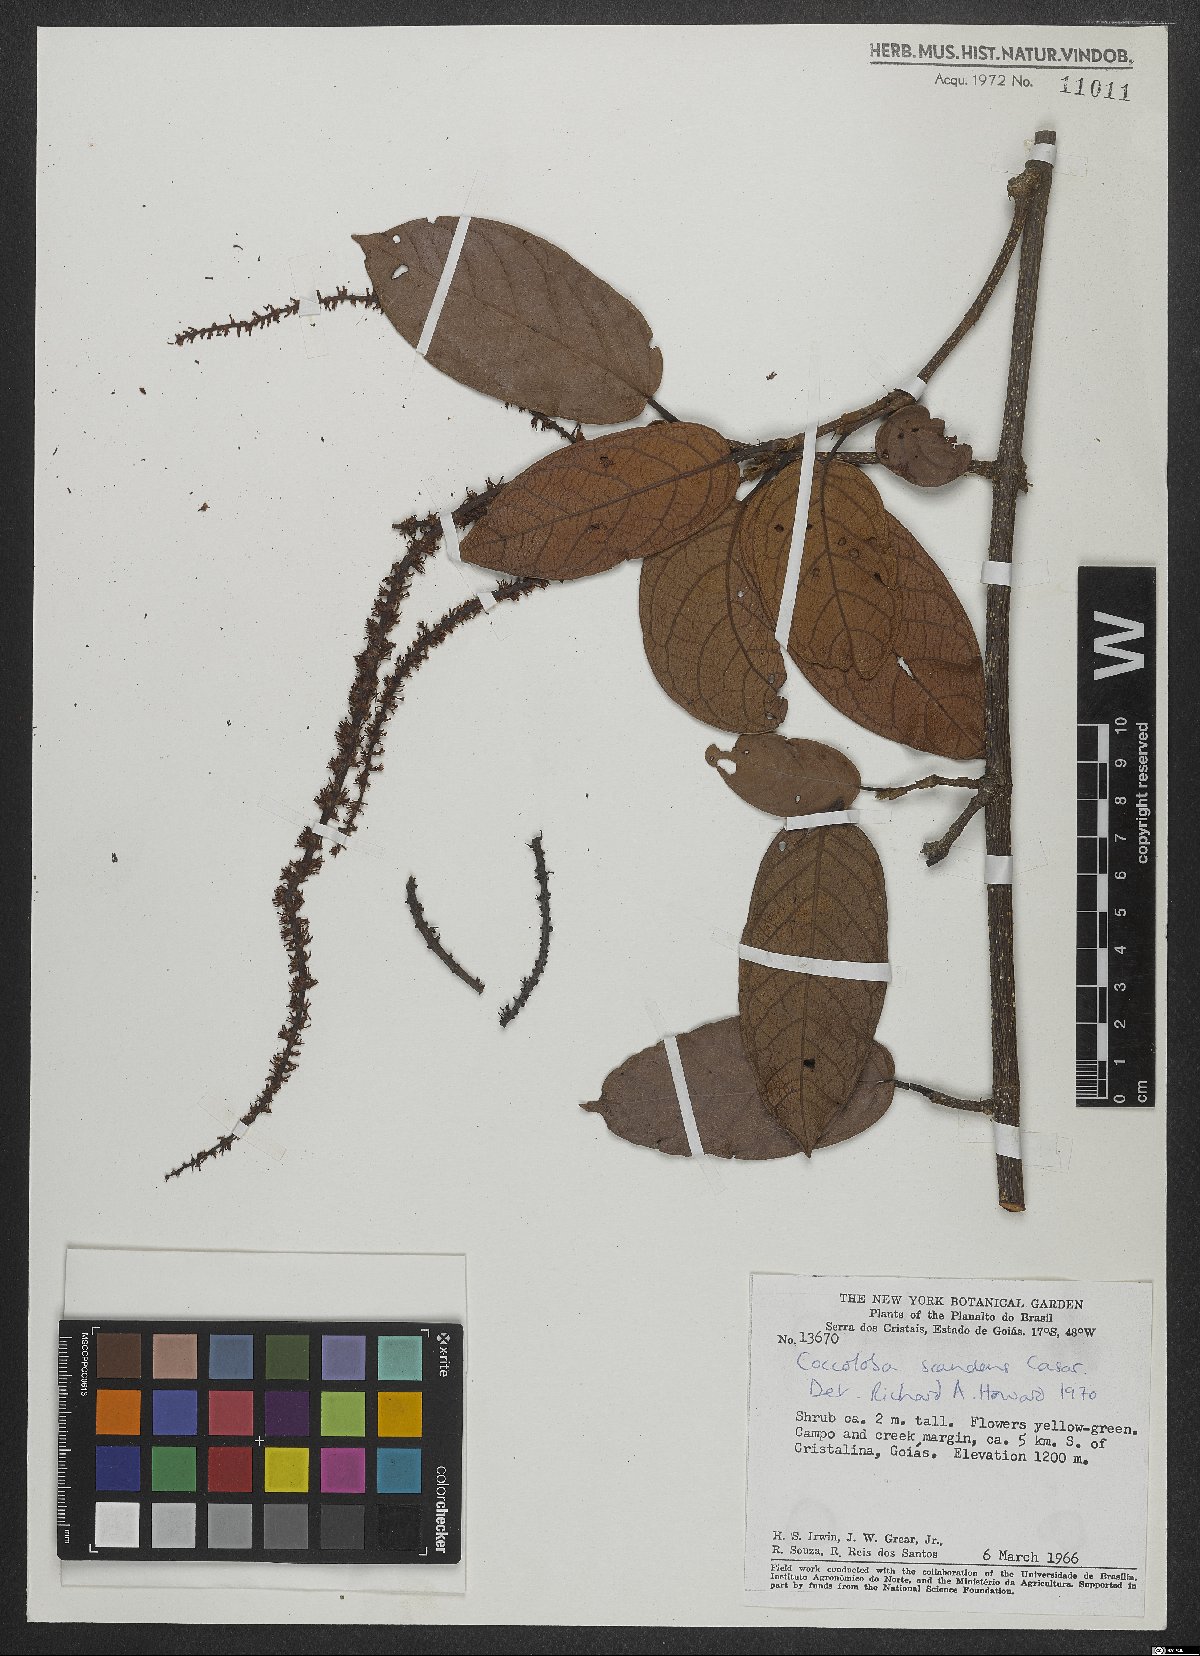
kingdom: Plantae
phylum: Tracheophyta
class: Magnoliopsida
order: Caryophyllales
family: Polygonaceae
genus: Coccoloba
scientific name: Coccoloba scandens
